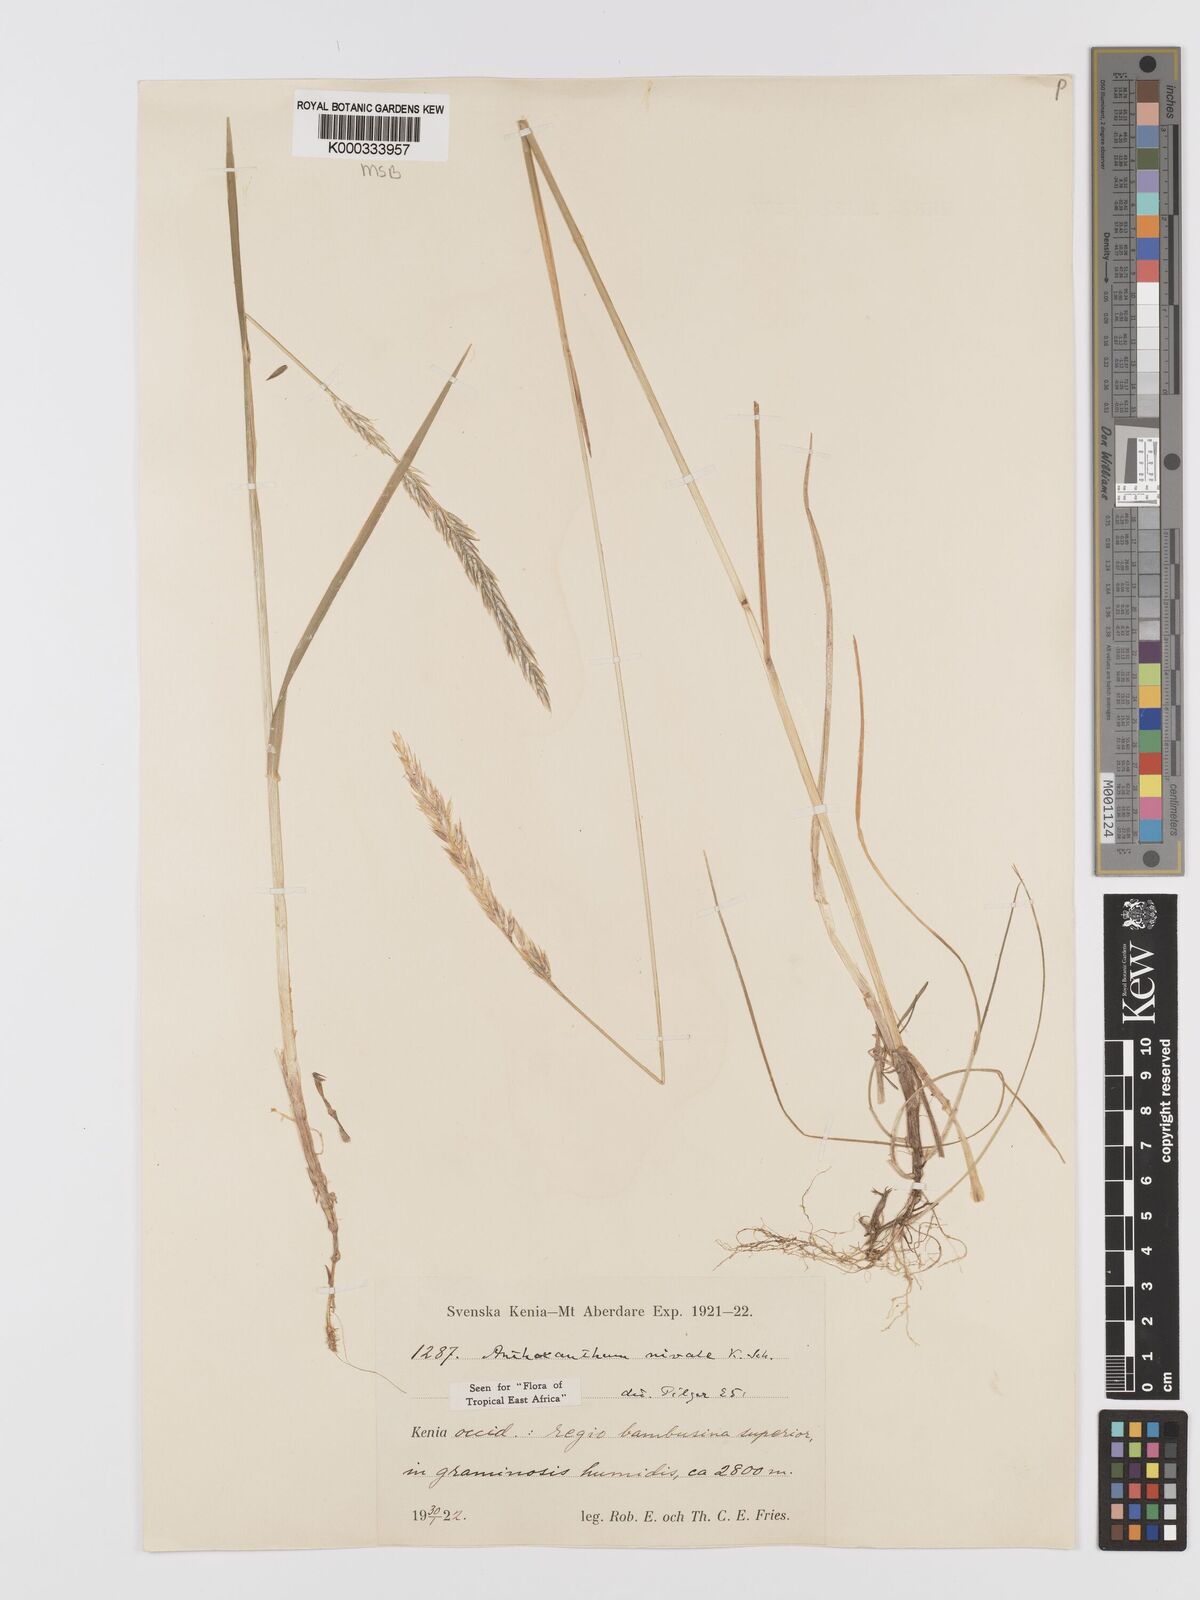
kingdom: Plantae
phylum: Tracheophyta
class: Liliopsida
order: Poales
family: Poaceae
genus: Anthoxanthum
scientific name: Anthoxanthum
